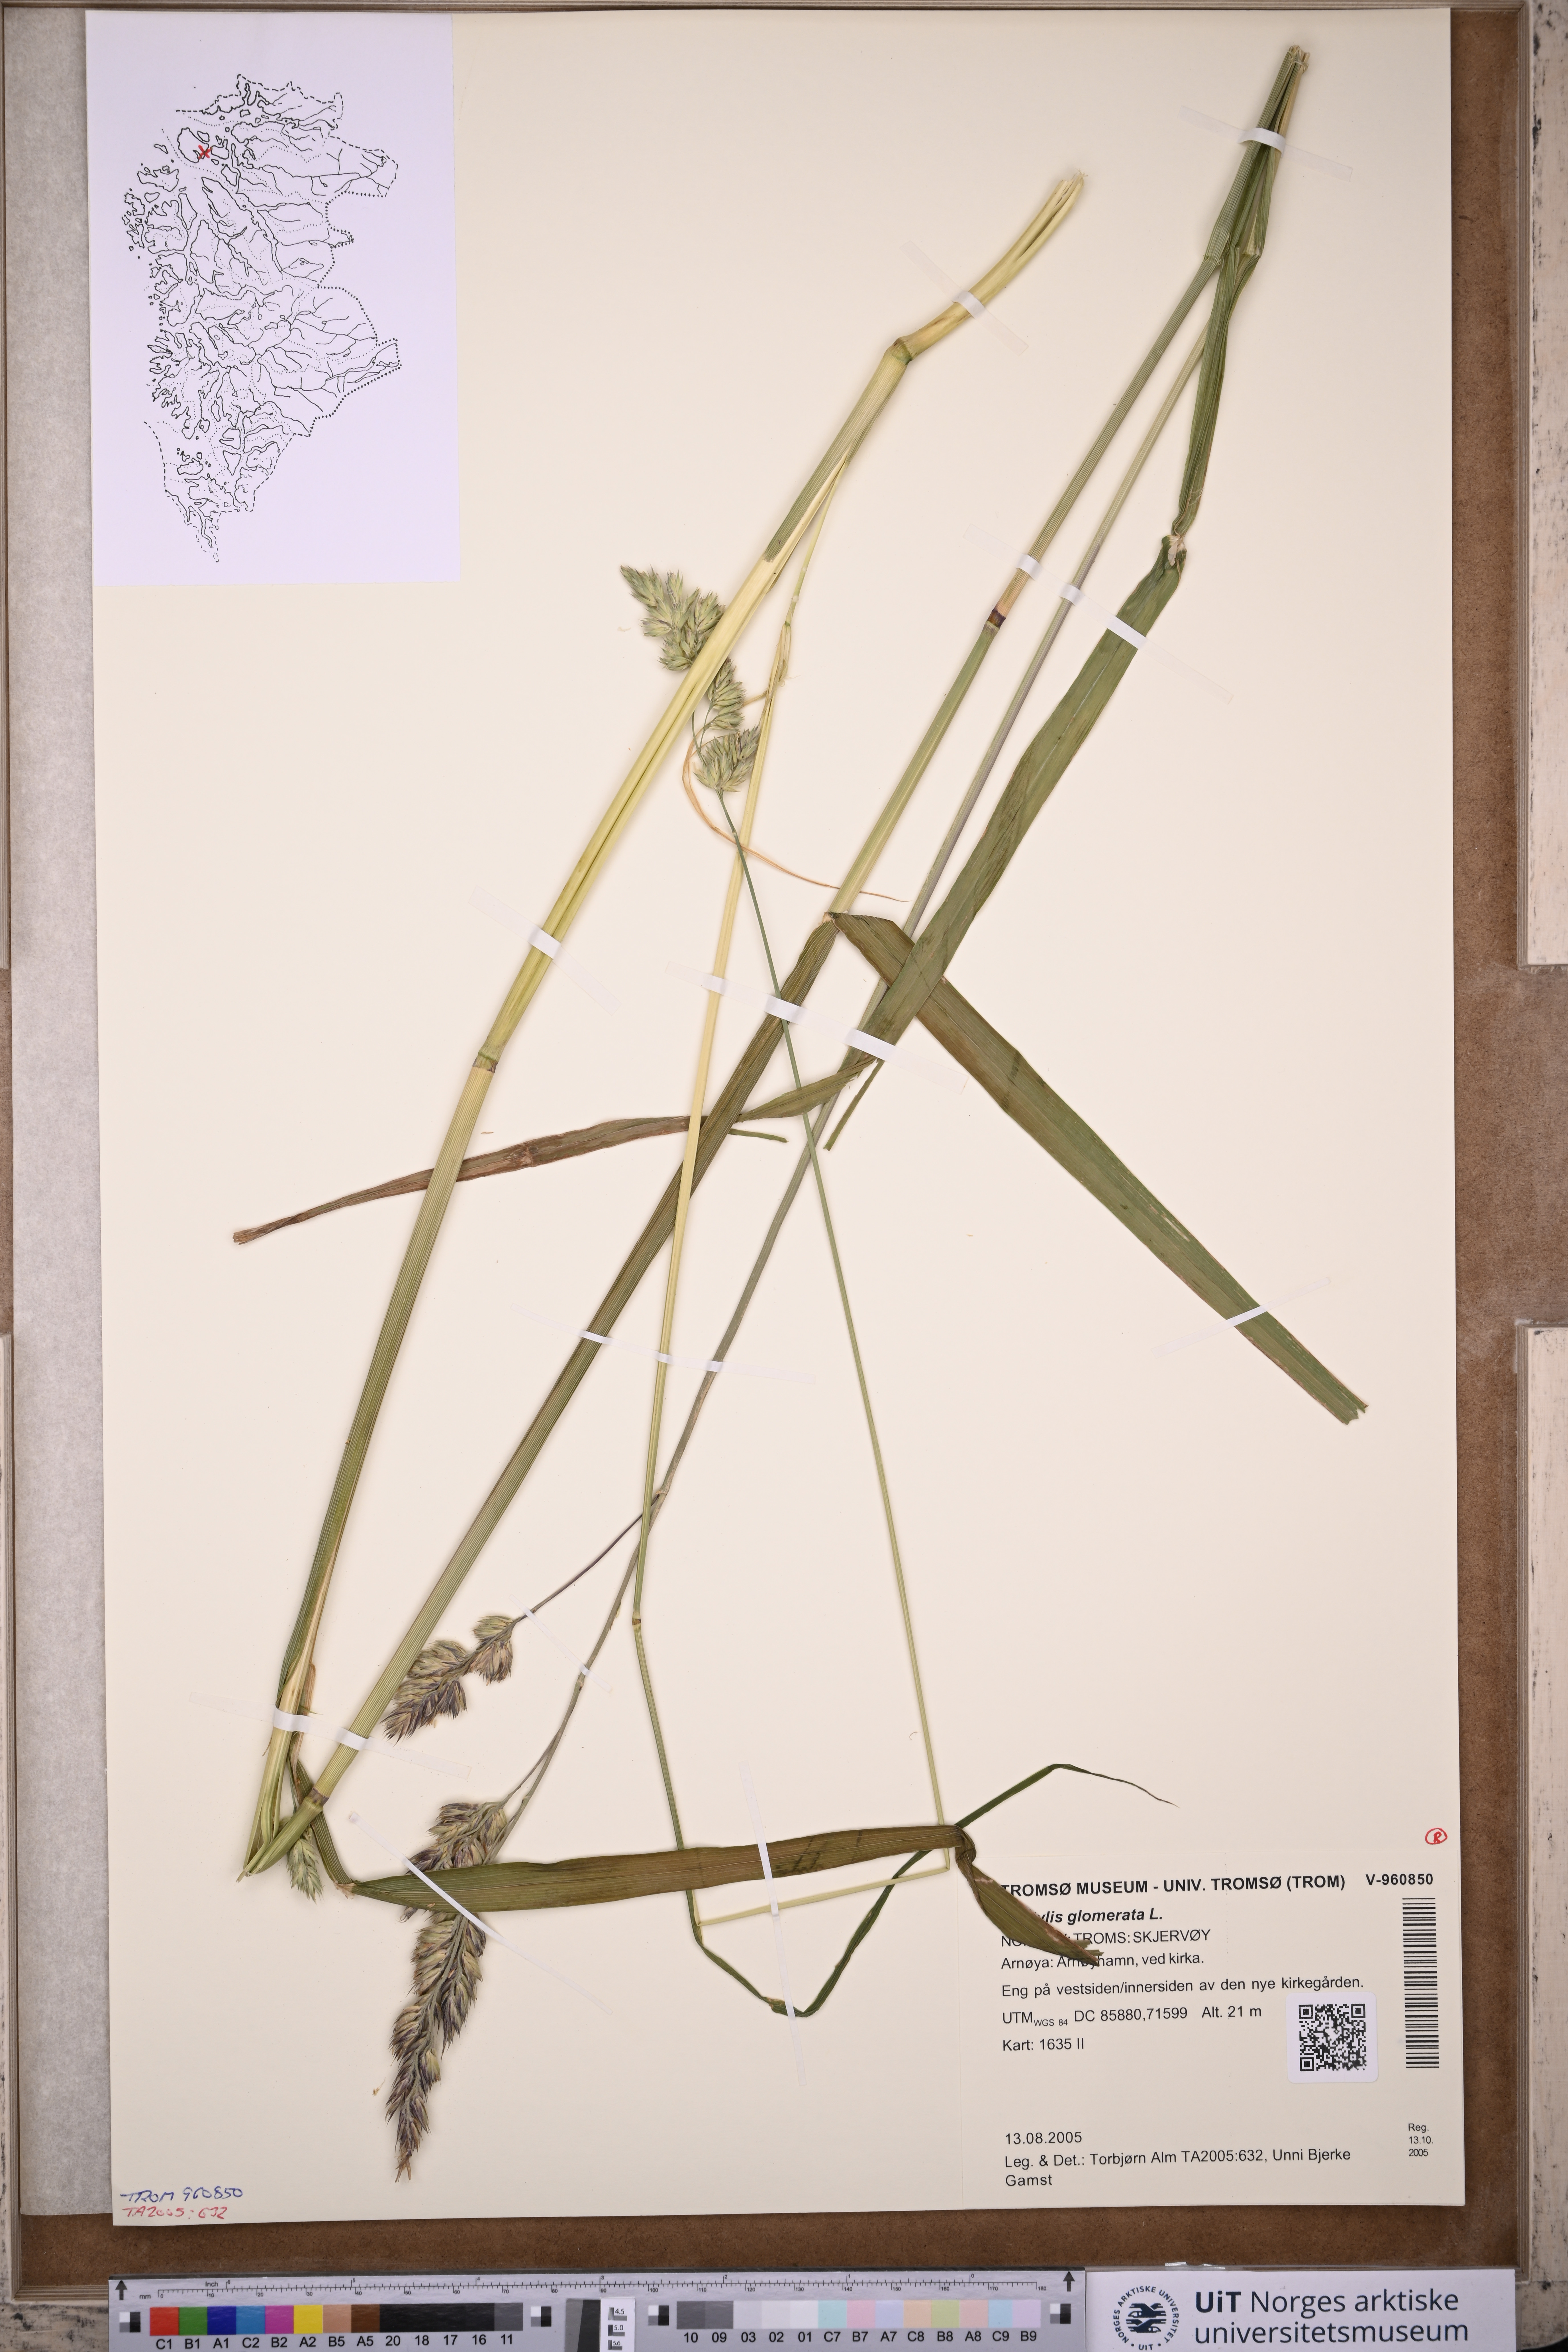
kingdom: Plantae
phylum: Tracheophyta
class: Liliopsida
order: Poales
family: Poaceae
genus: Dactylis
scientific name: Dactylis glomerata
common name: Orchardgrass
